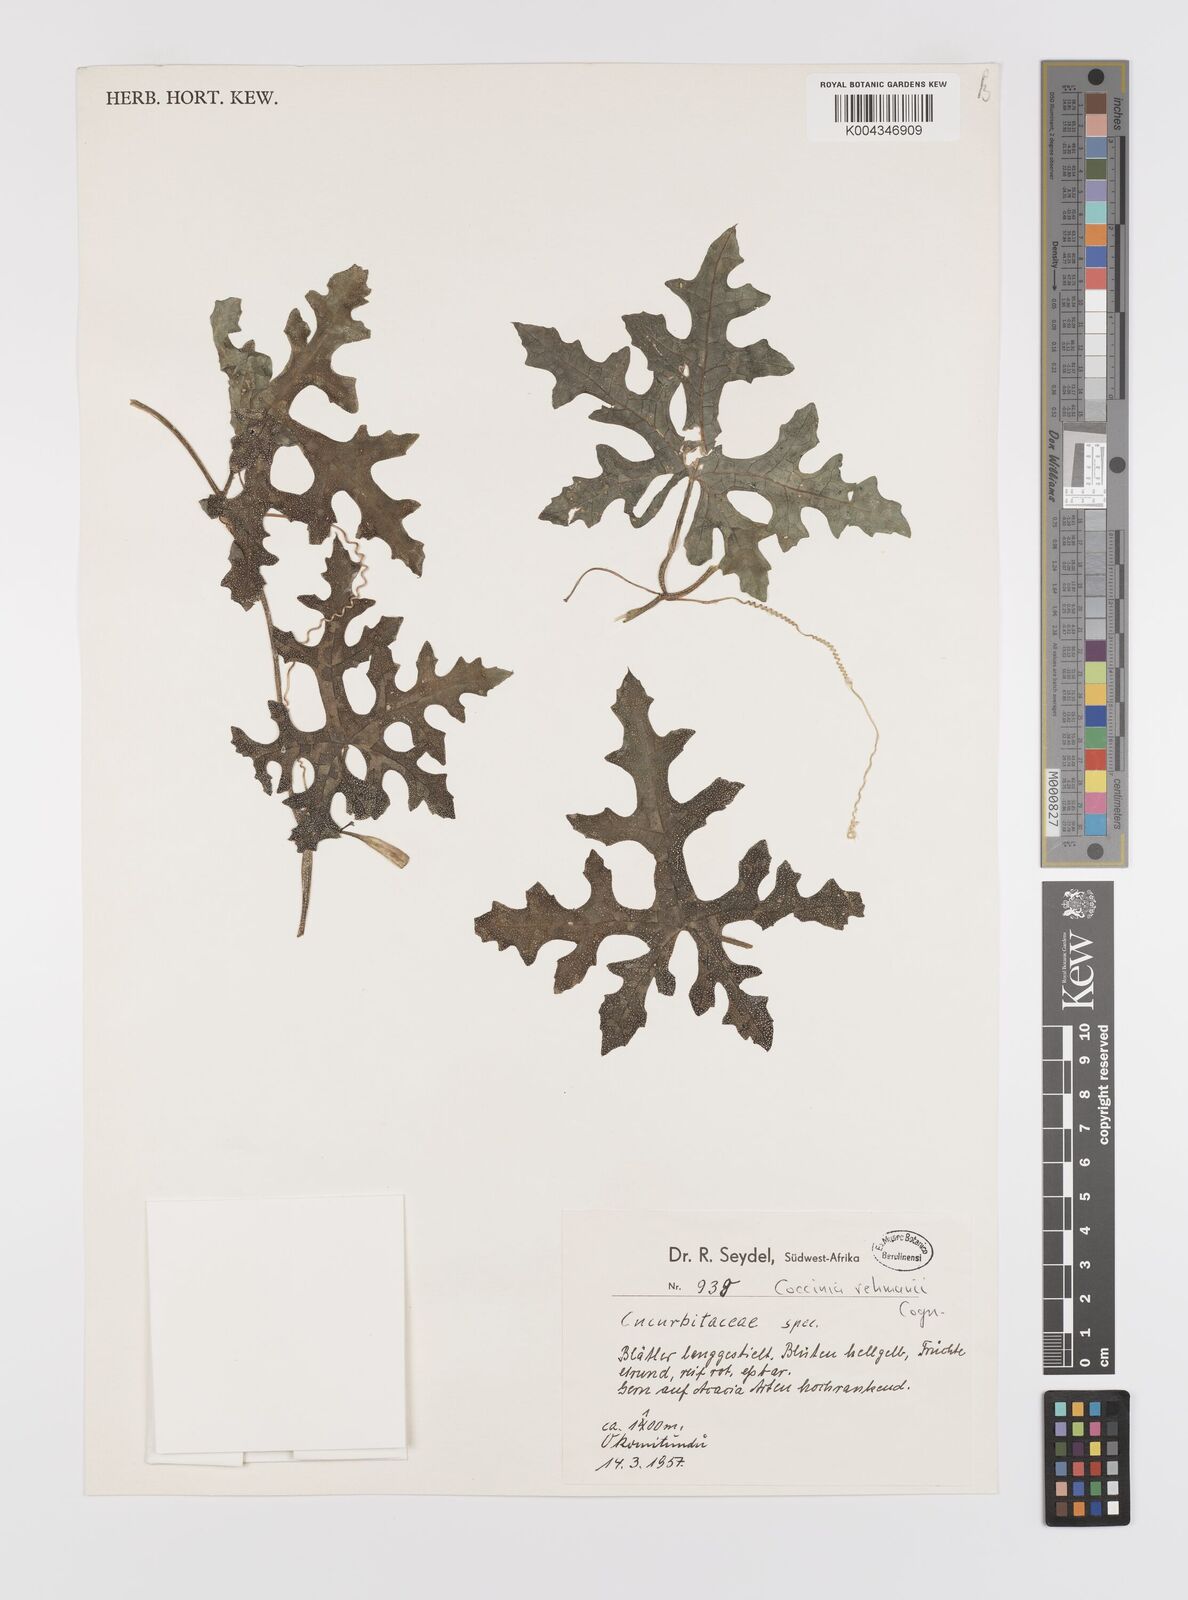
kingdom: Plantae
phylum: Tracheophyta
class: Magnoliopsida
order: Cucurbitales
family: Cucurbitaceae
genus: Coccinia
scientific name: Coccinia rehmannii
